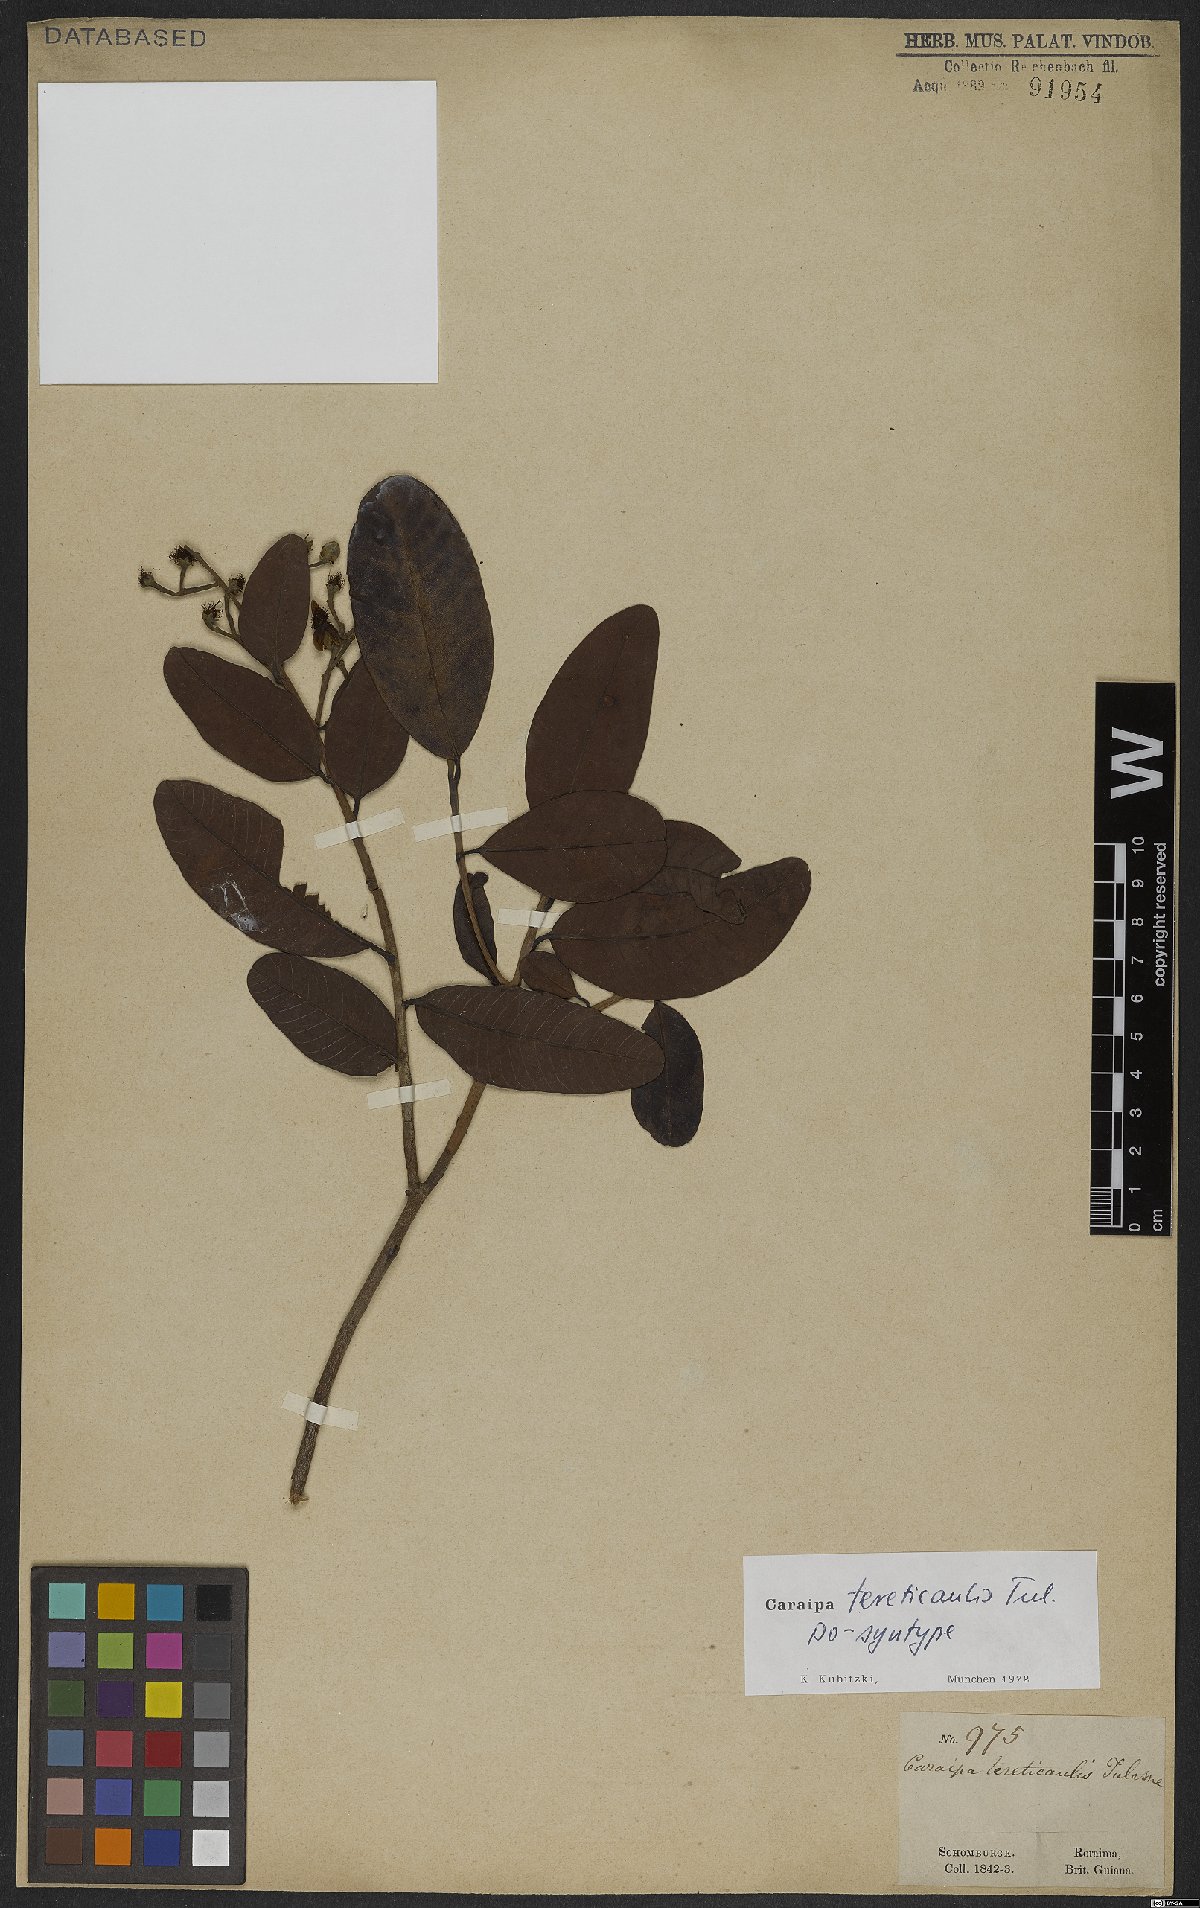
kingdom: Plantae
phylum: Tracheophyta
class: Magnoliopsida
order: Malpighiales
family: Calophyllaceae
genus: Caraipa
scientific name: Caraipa tereticaulis
